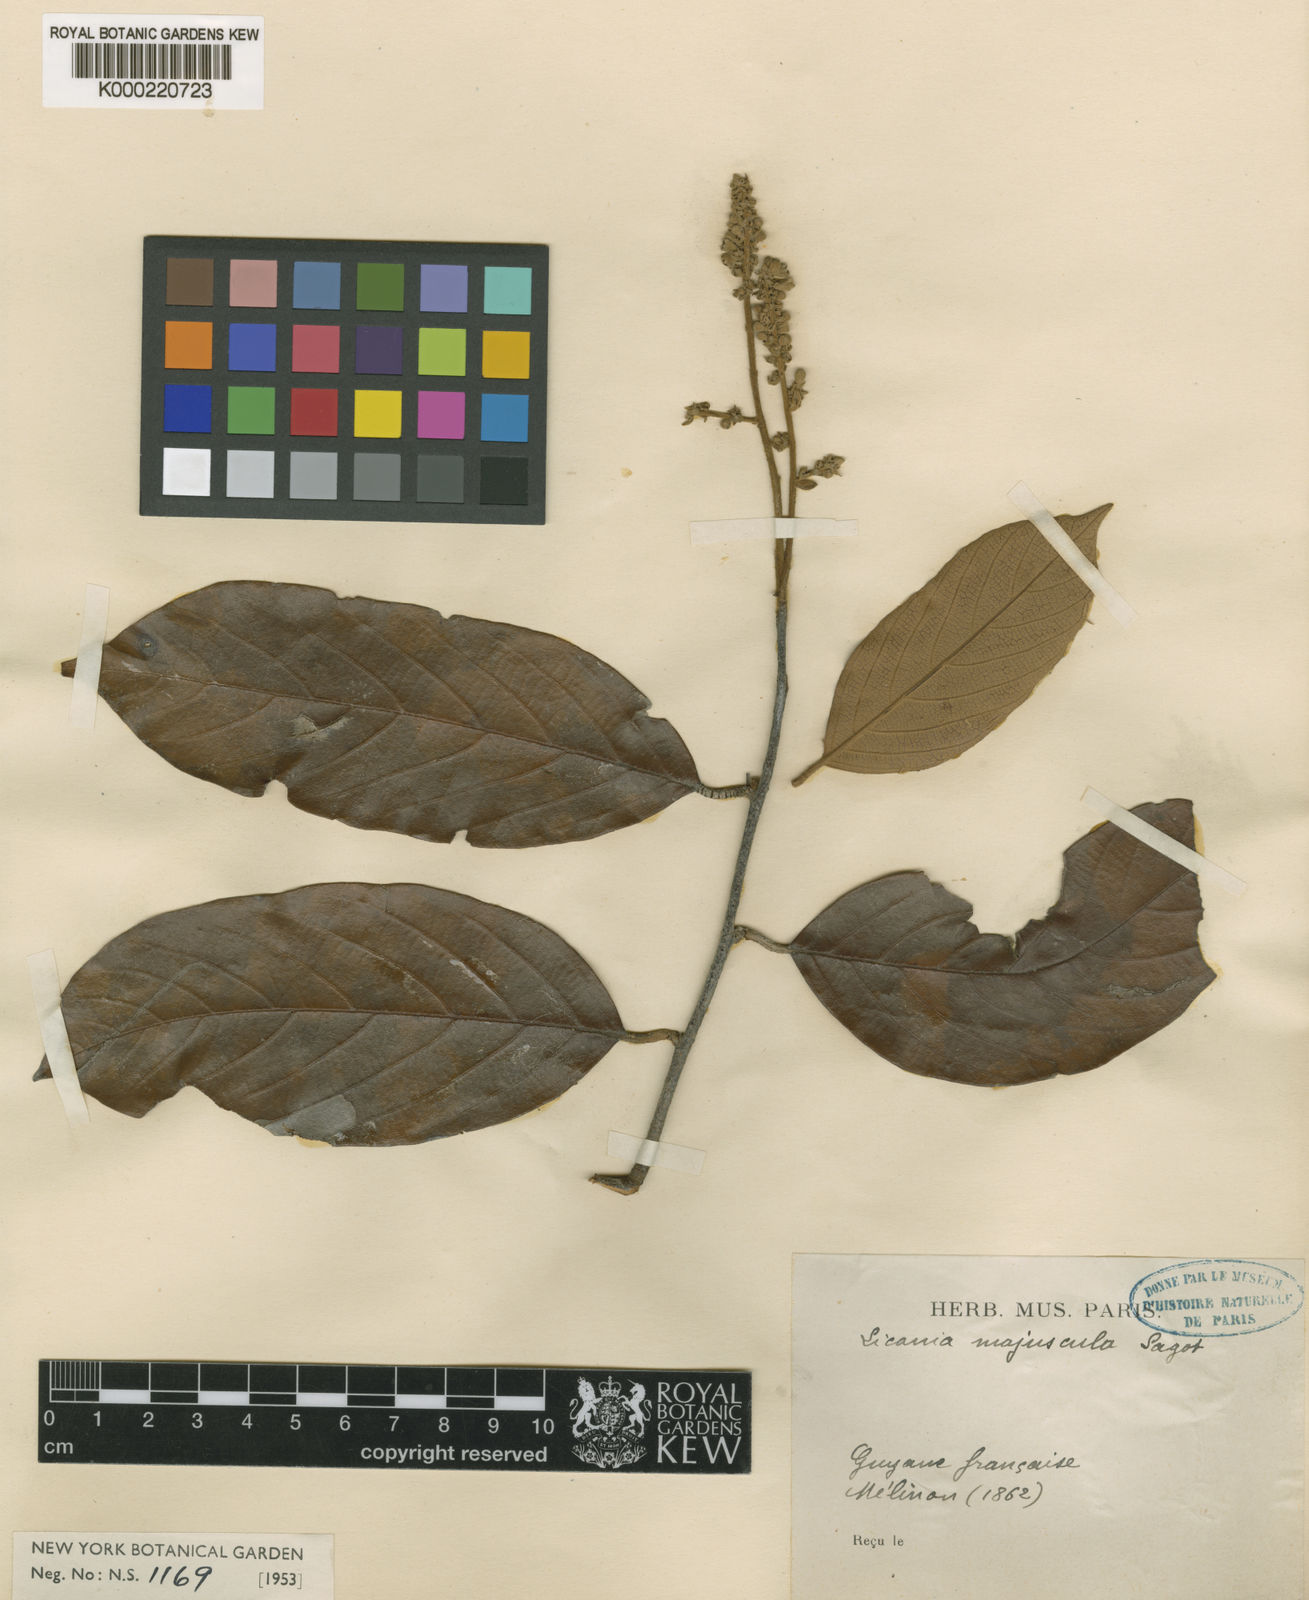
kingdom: Plantae
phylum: Tracheophyta
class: Magnoliopsida
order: Malpighiales
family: Chrysobalanaceae
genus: Licania
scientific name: Licania majuscula
